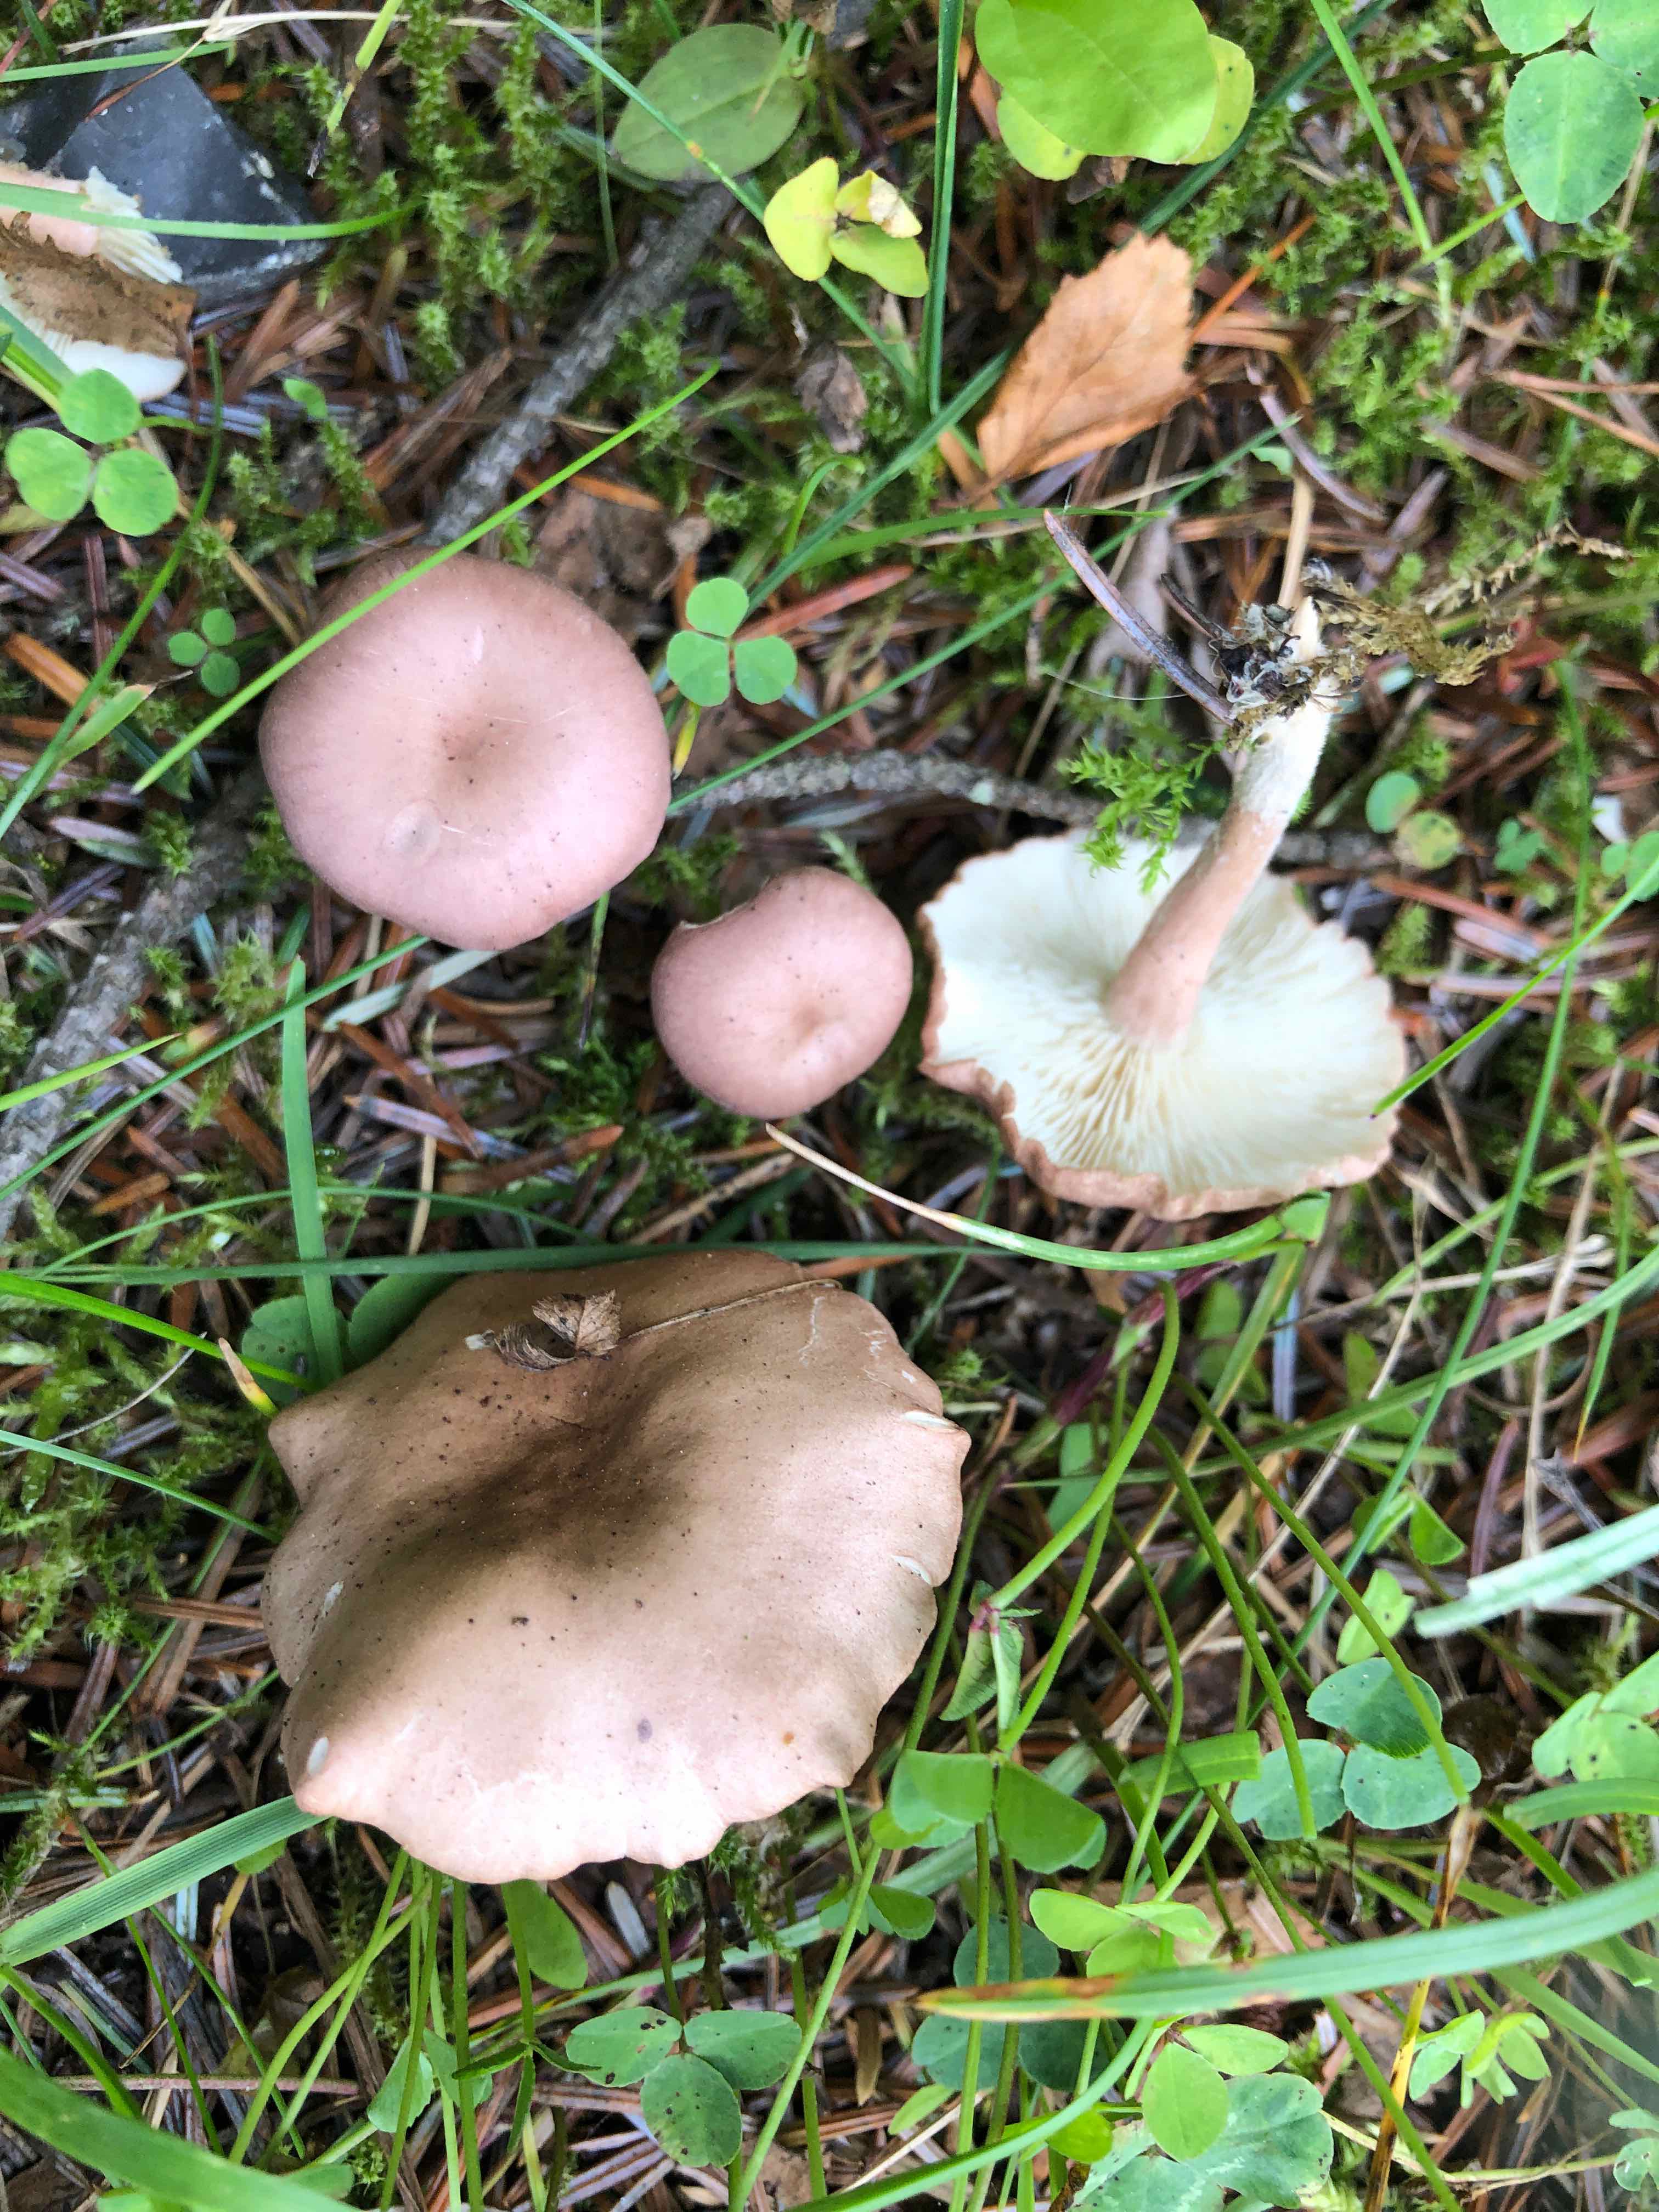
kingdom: Fungi
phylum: Basidiomycota
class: Agaricomycetes
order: Agaricales
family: Lyophyllaceae
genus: Calocybe
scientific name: Calocybe carnea
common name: rosa fagerhat
